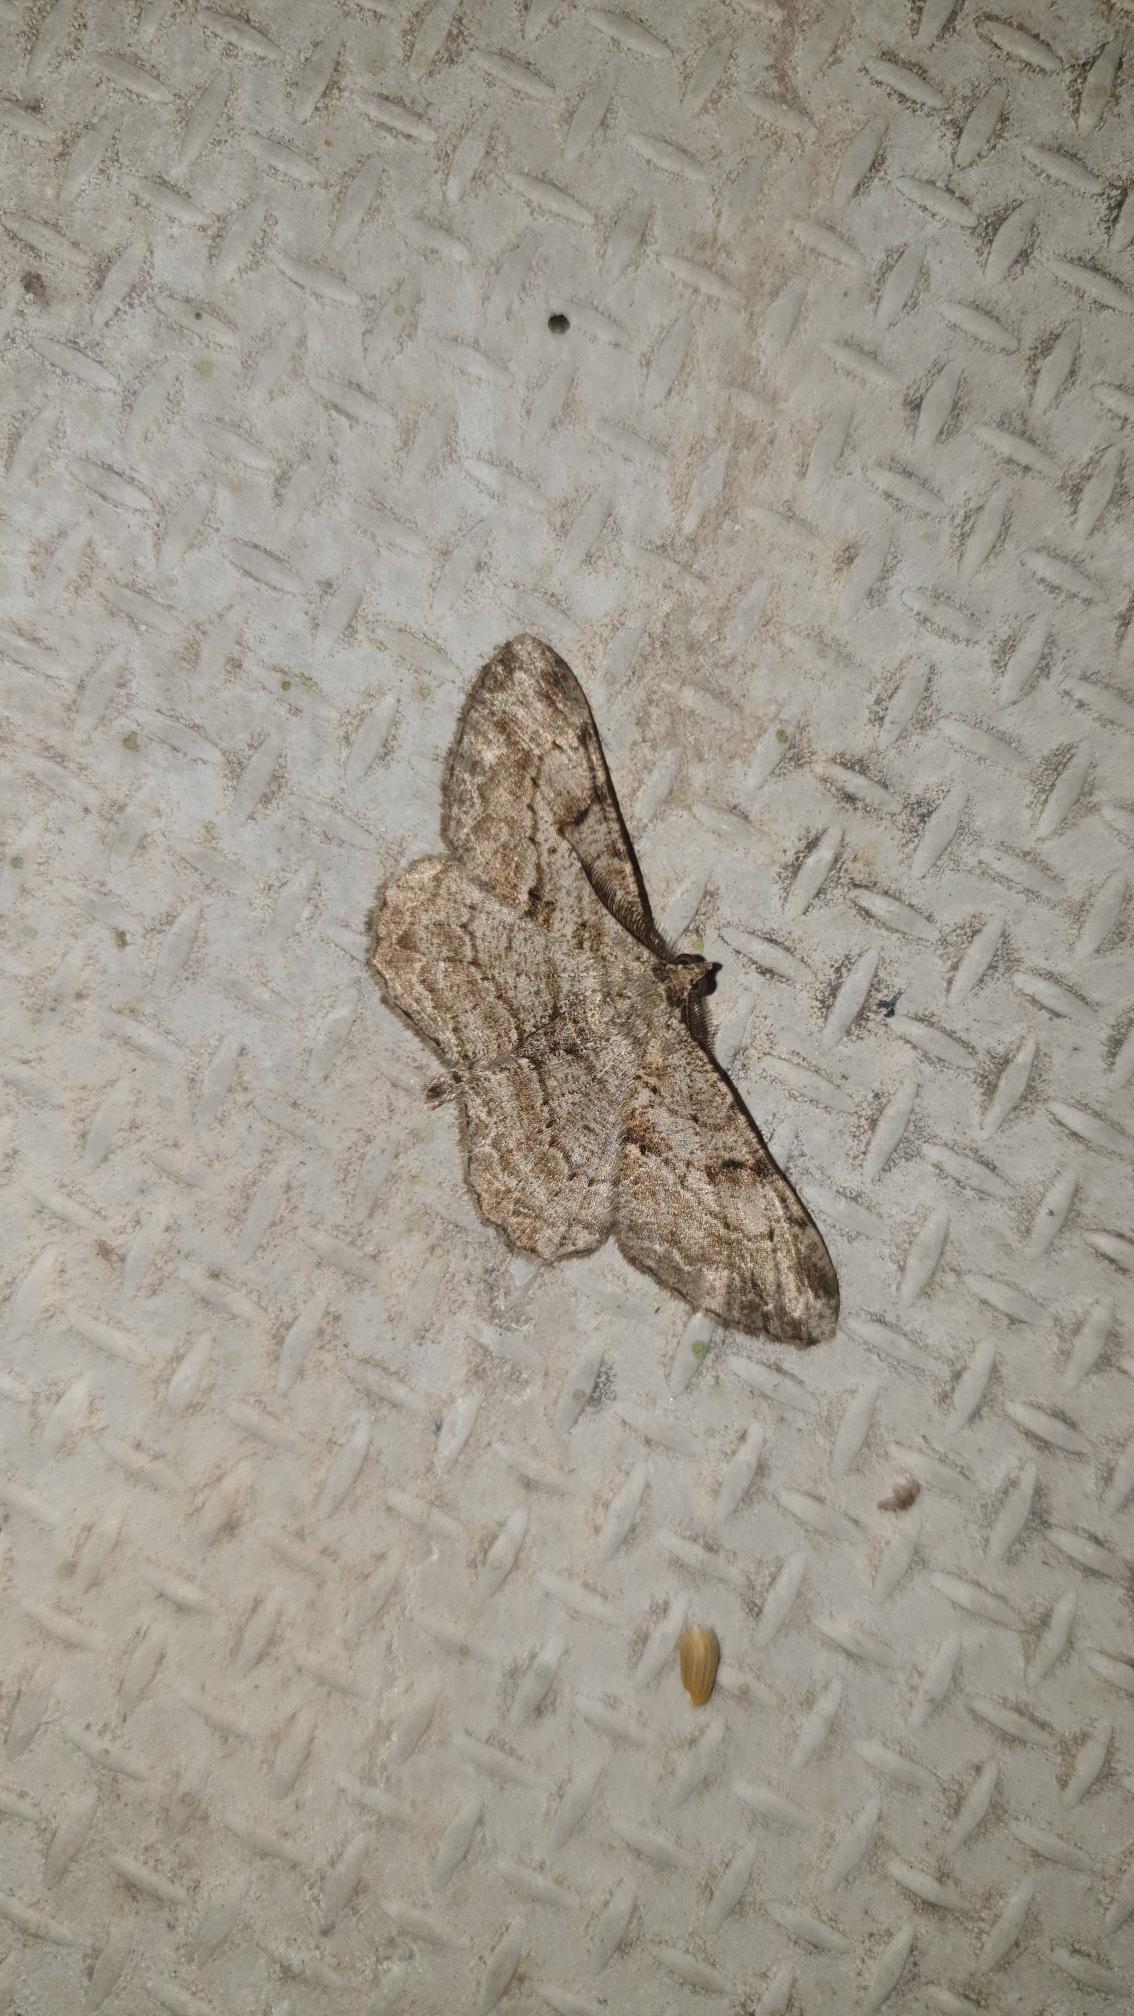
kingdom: Animalia
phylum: Arthropoda
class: Insecta
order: Lepidoptera
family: Geometridae
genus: Peribatodes
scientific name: Peribatodes rhomboidaria
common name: Frugttræ-barkmåler
